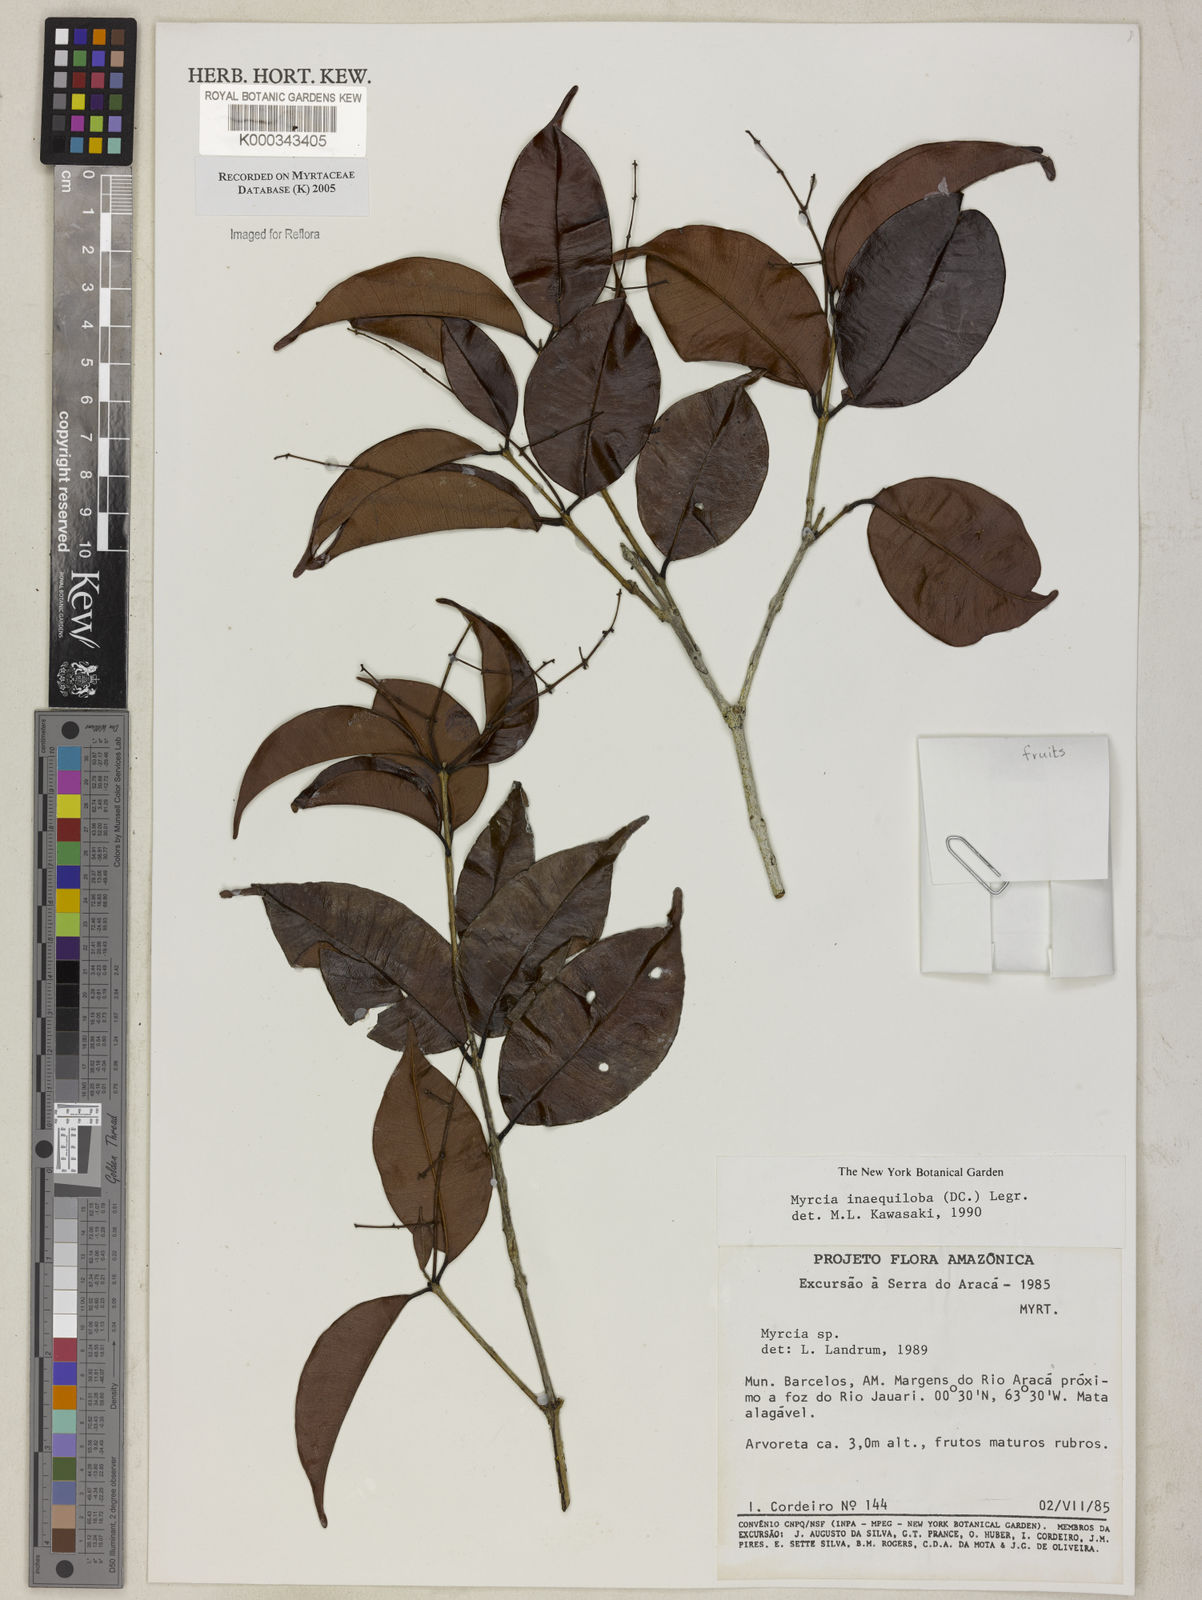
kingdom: Plantae
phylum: Tracheophyta
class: Magnoliopsida
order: Myrtales
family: Myrtaceae
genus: Myrcia
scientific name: Myrcia
